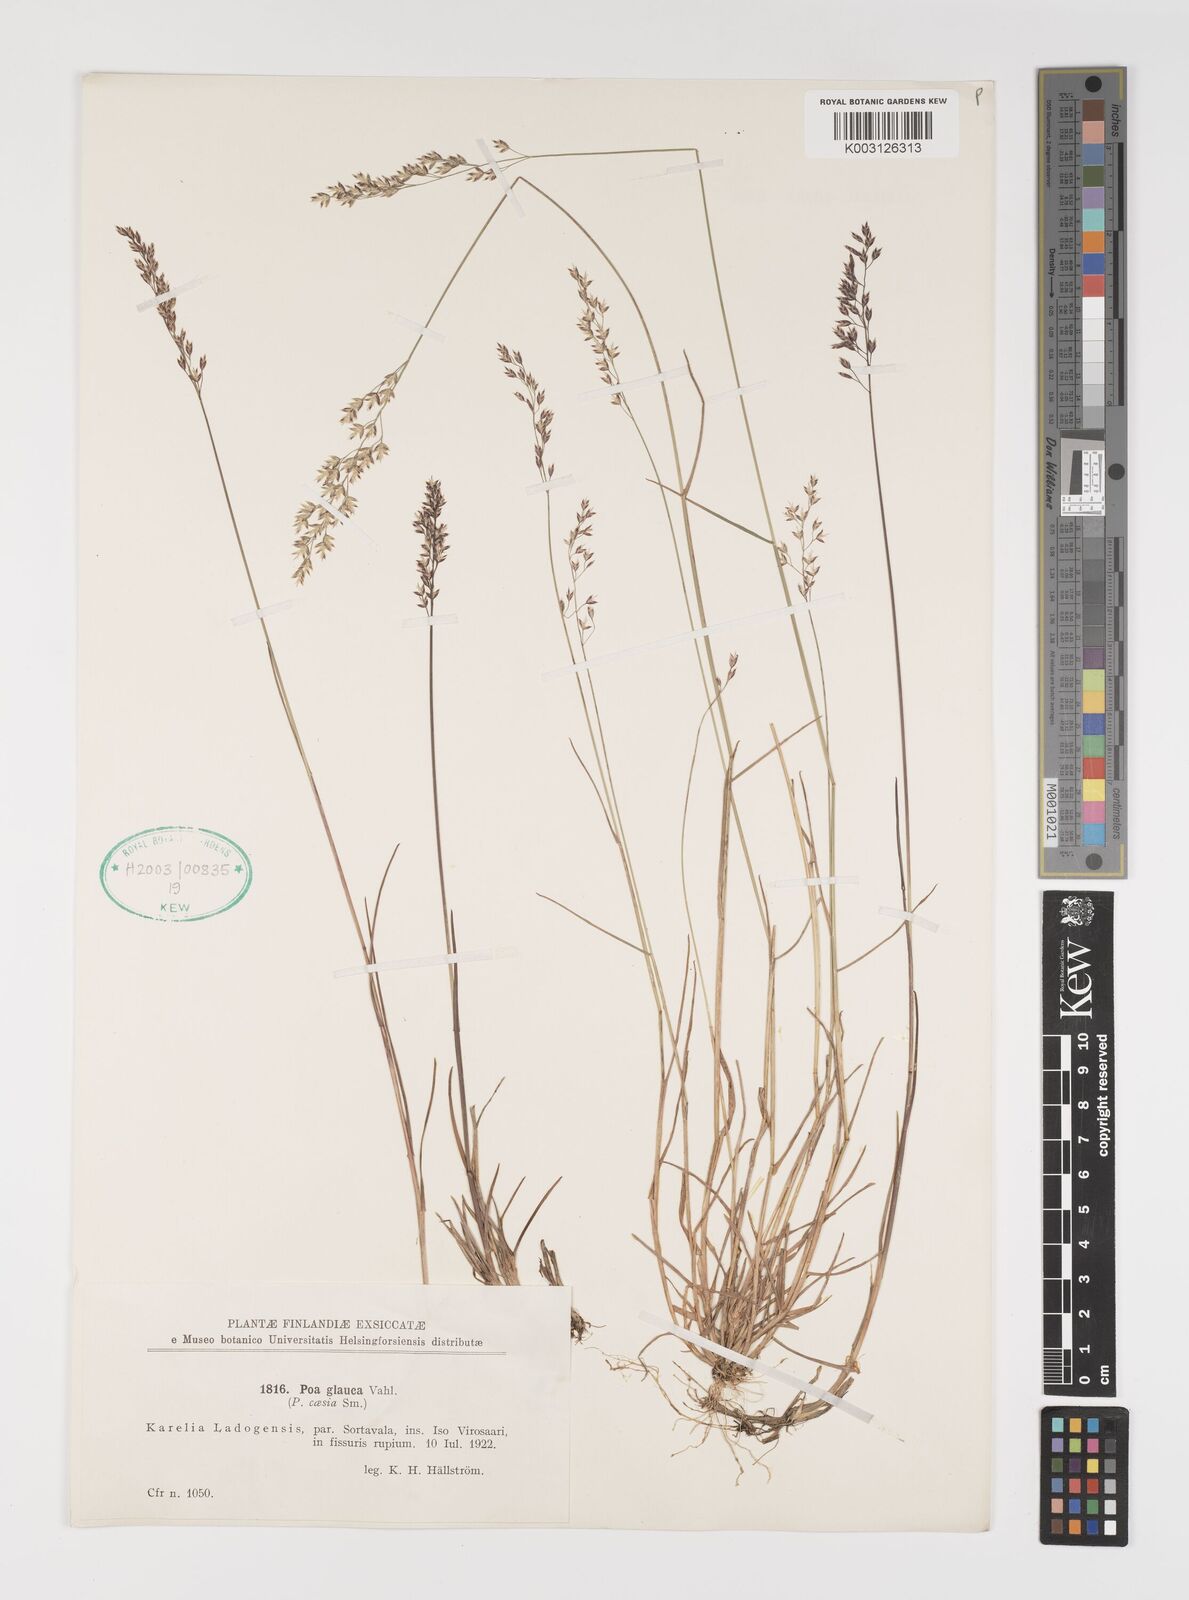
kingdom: Plantae
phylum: Tracheophyta
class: Liliopsida
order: Poales
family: Poaceae
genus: Poa
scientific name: Poa glauca
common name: Glaucous bluegrass
